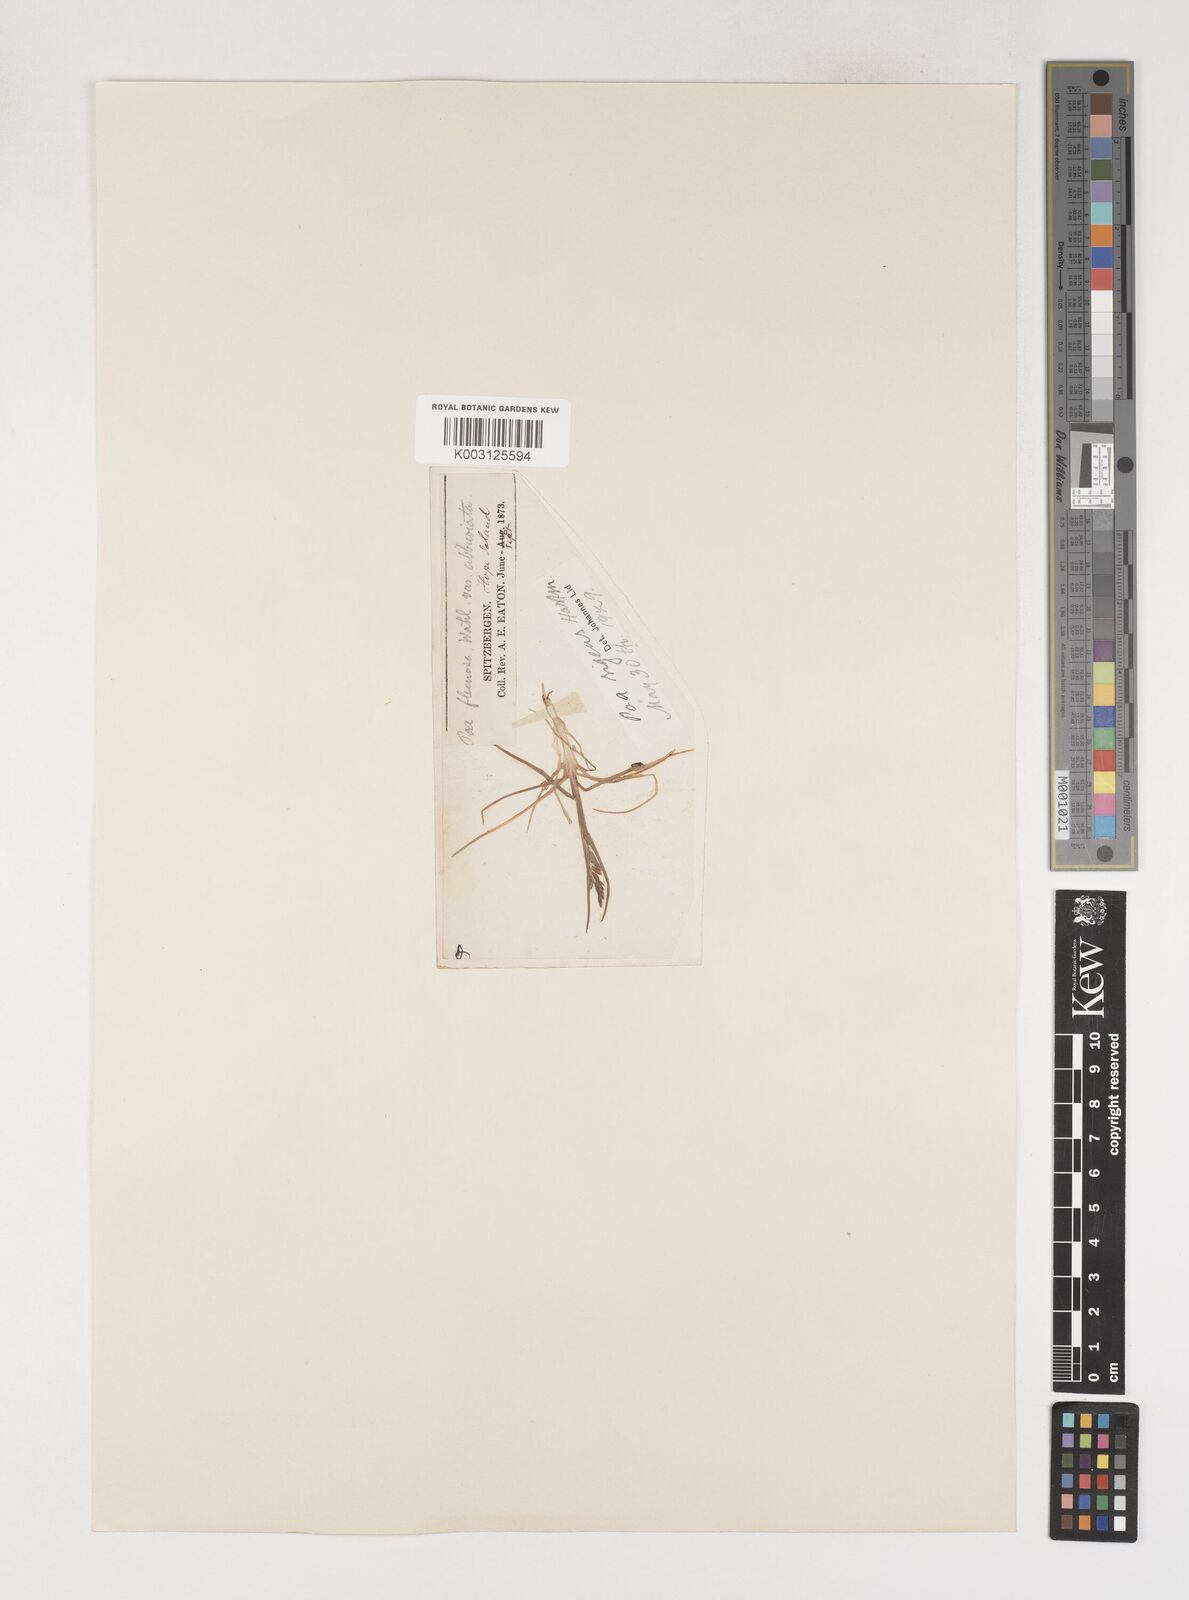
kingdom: Plantae
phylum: Tracheophyta
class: Liliopsida
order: Poales
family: Poaceae
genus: Poa
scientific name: Poa arctica
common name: Arctic bluegrass
